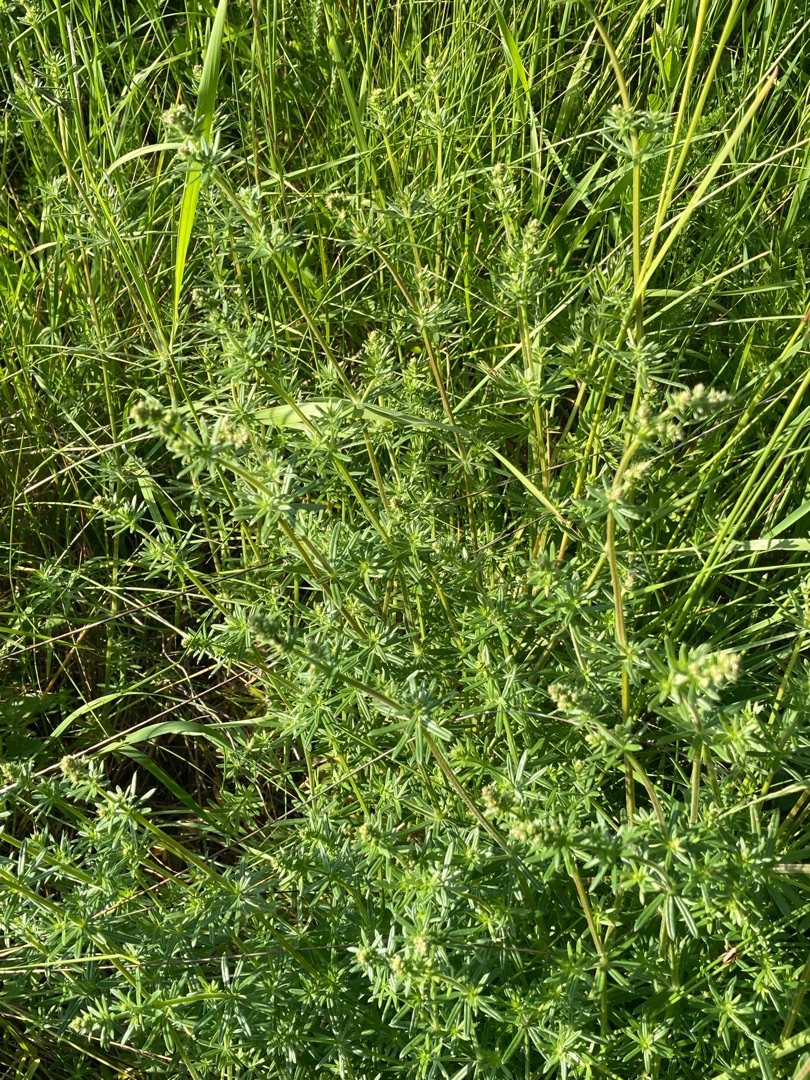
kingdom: Plantae
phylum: Tracheophyta
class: Magnoliopsida
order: Gentianales
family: Rubiaceae
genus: Galium
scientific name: Galium mollugo
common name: Hvid snerre
